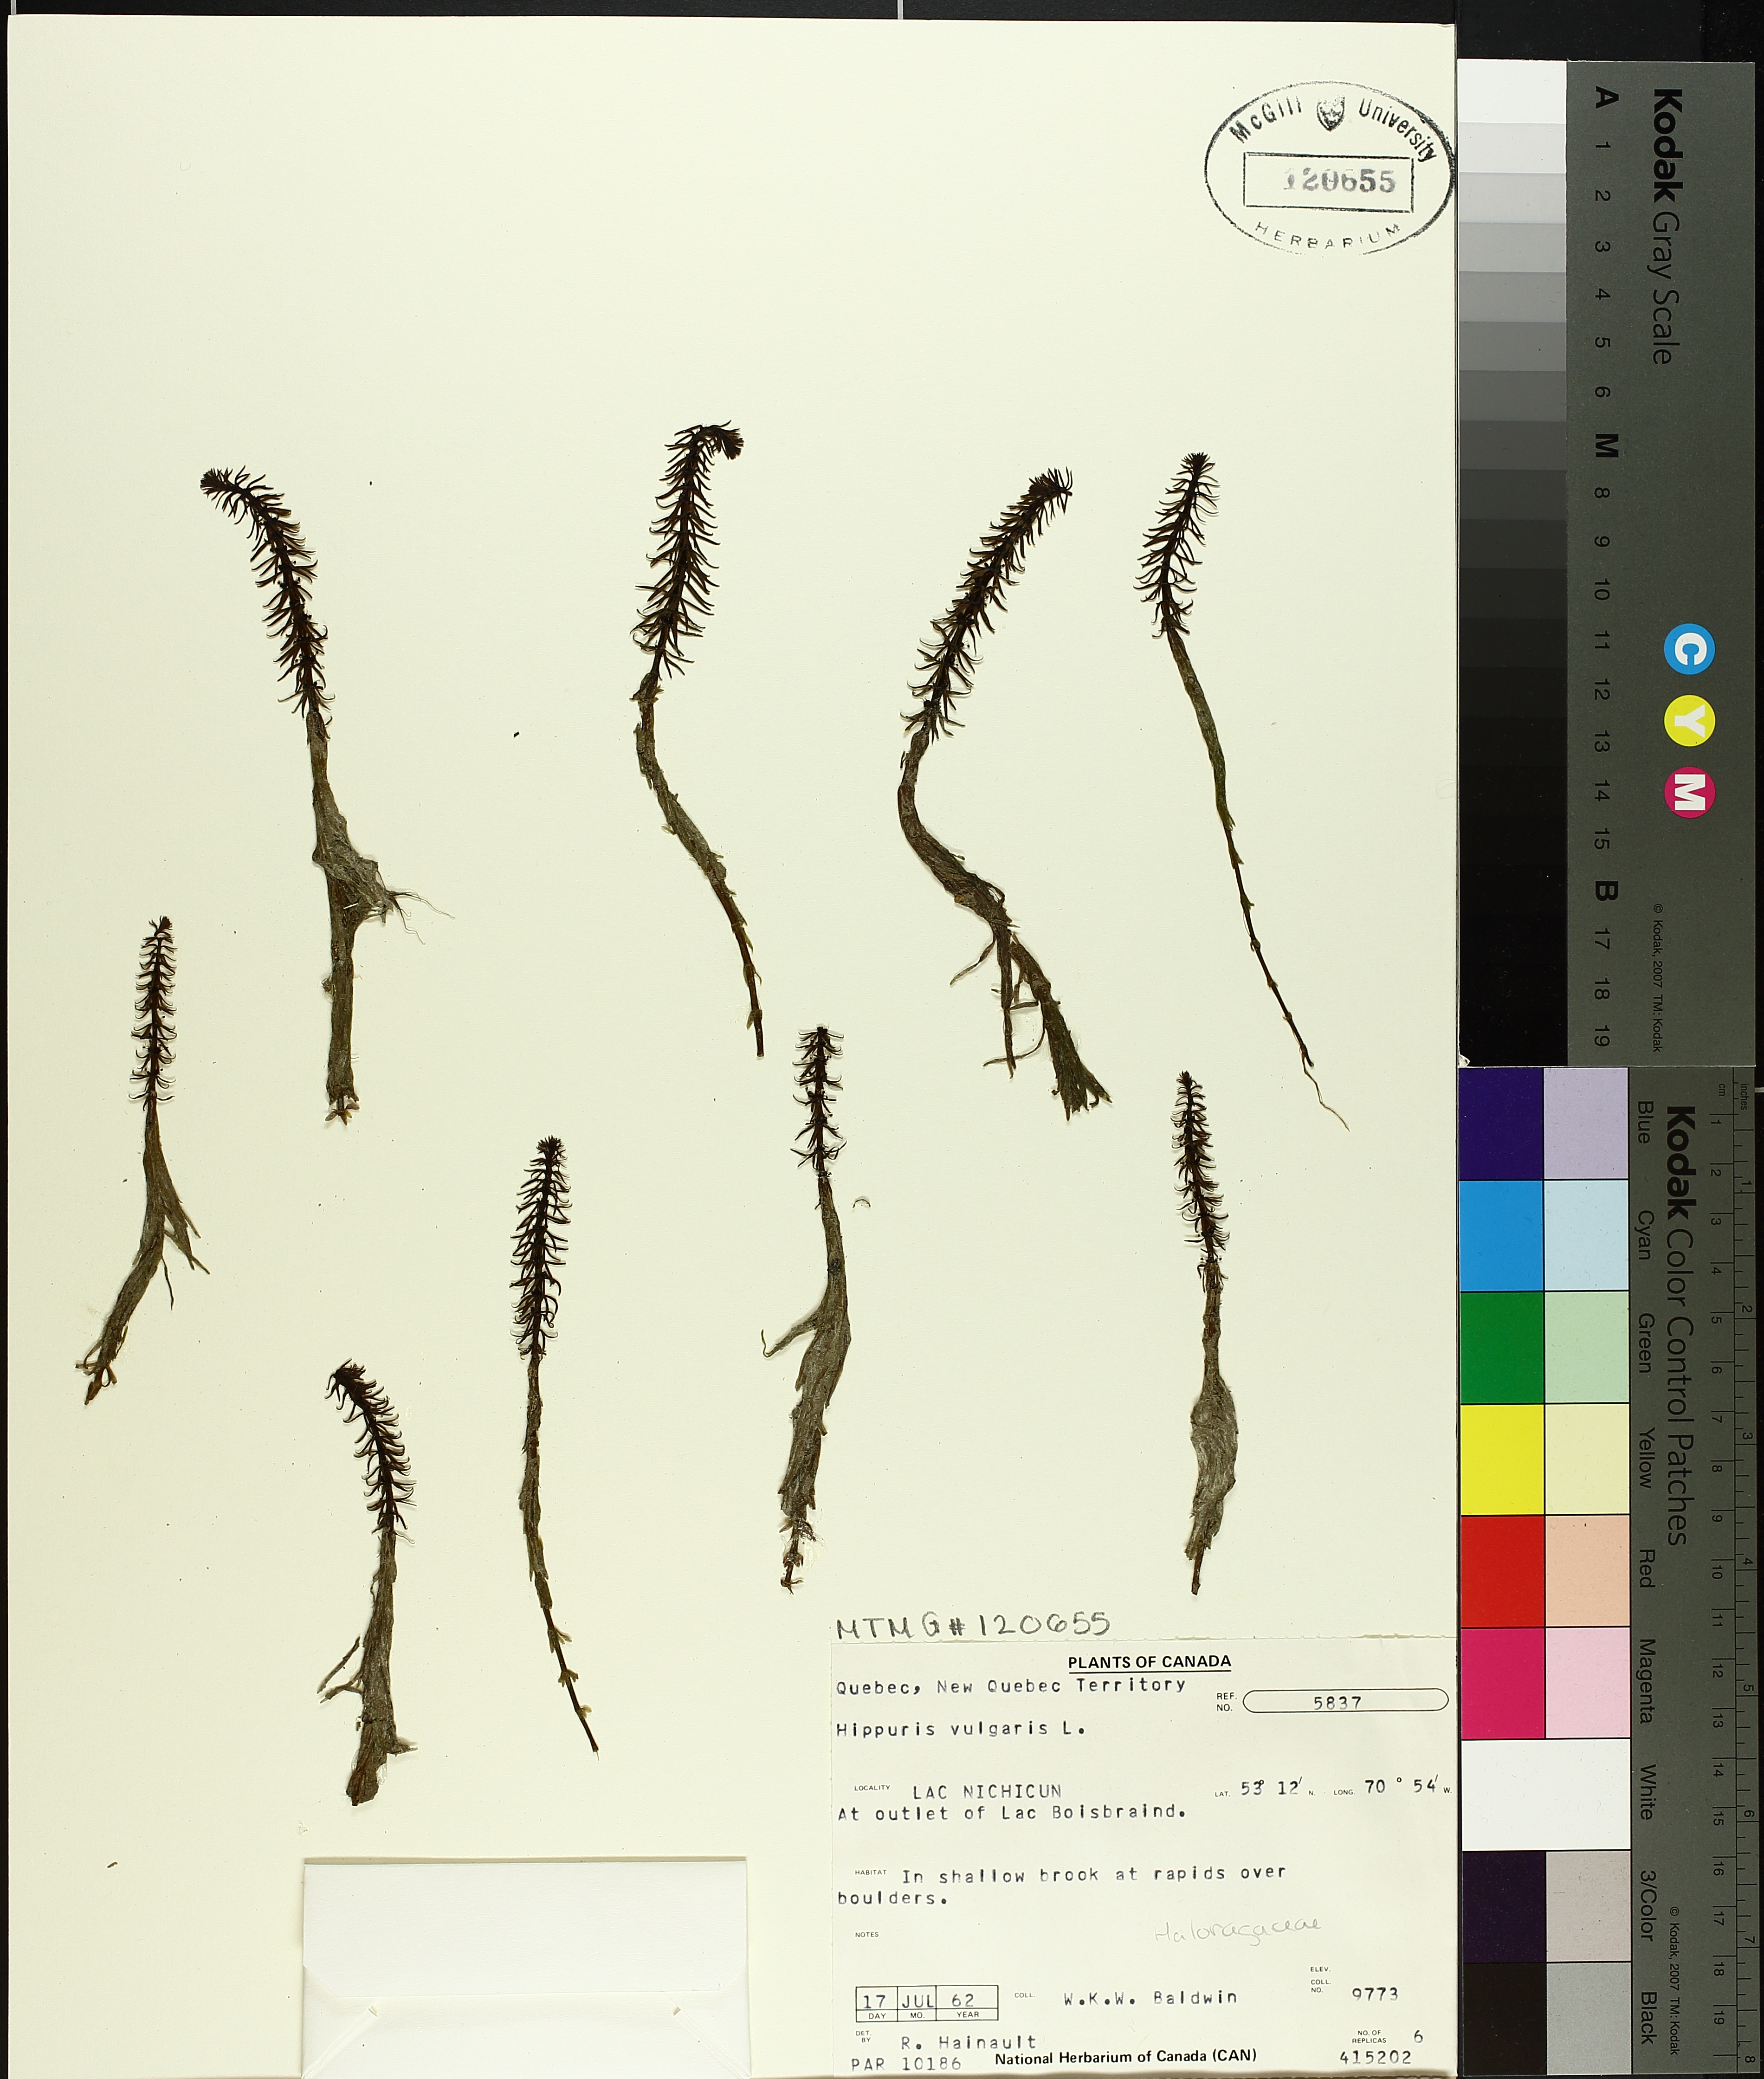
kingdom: Plantae
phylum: Tracheophyta
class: Magnoliopsida
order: Lamiales
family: Plantaginaceae
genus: Hippuris
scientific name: Hippuris vulgaris
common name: Mare's-tail
